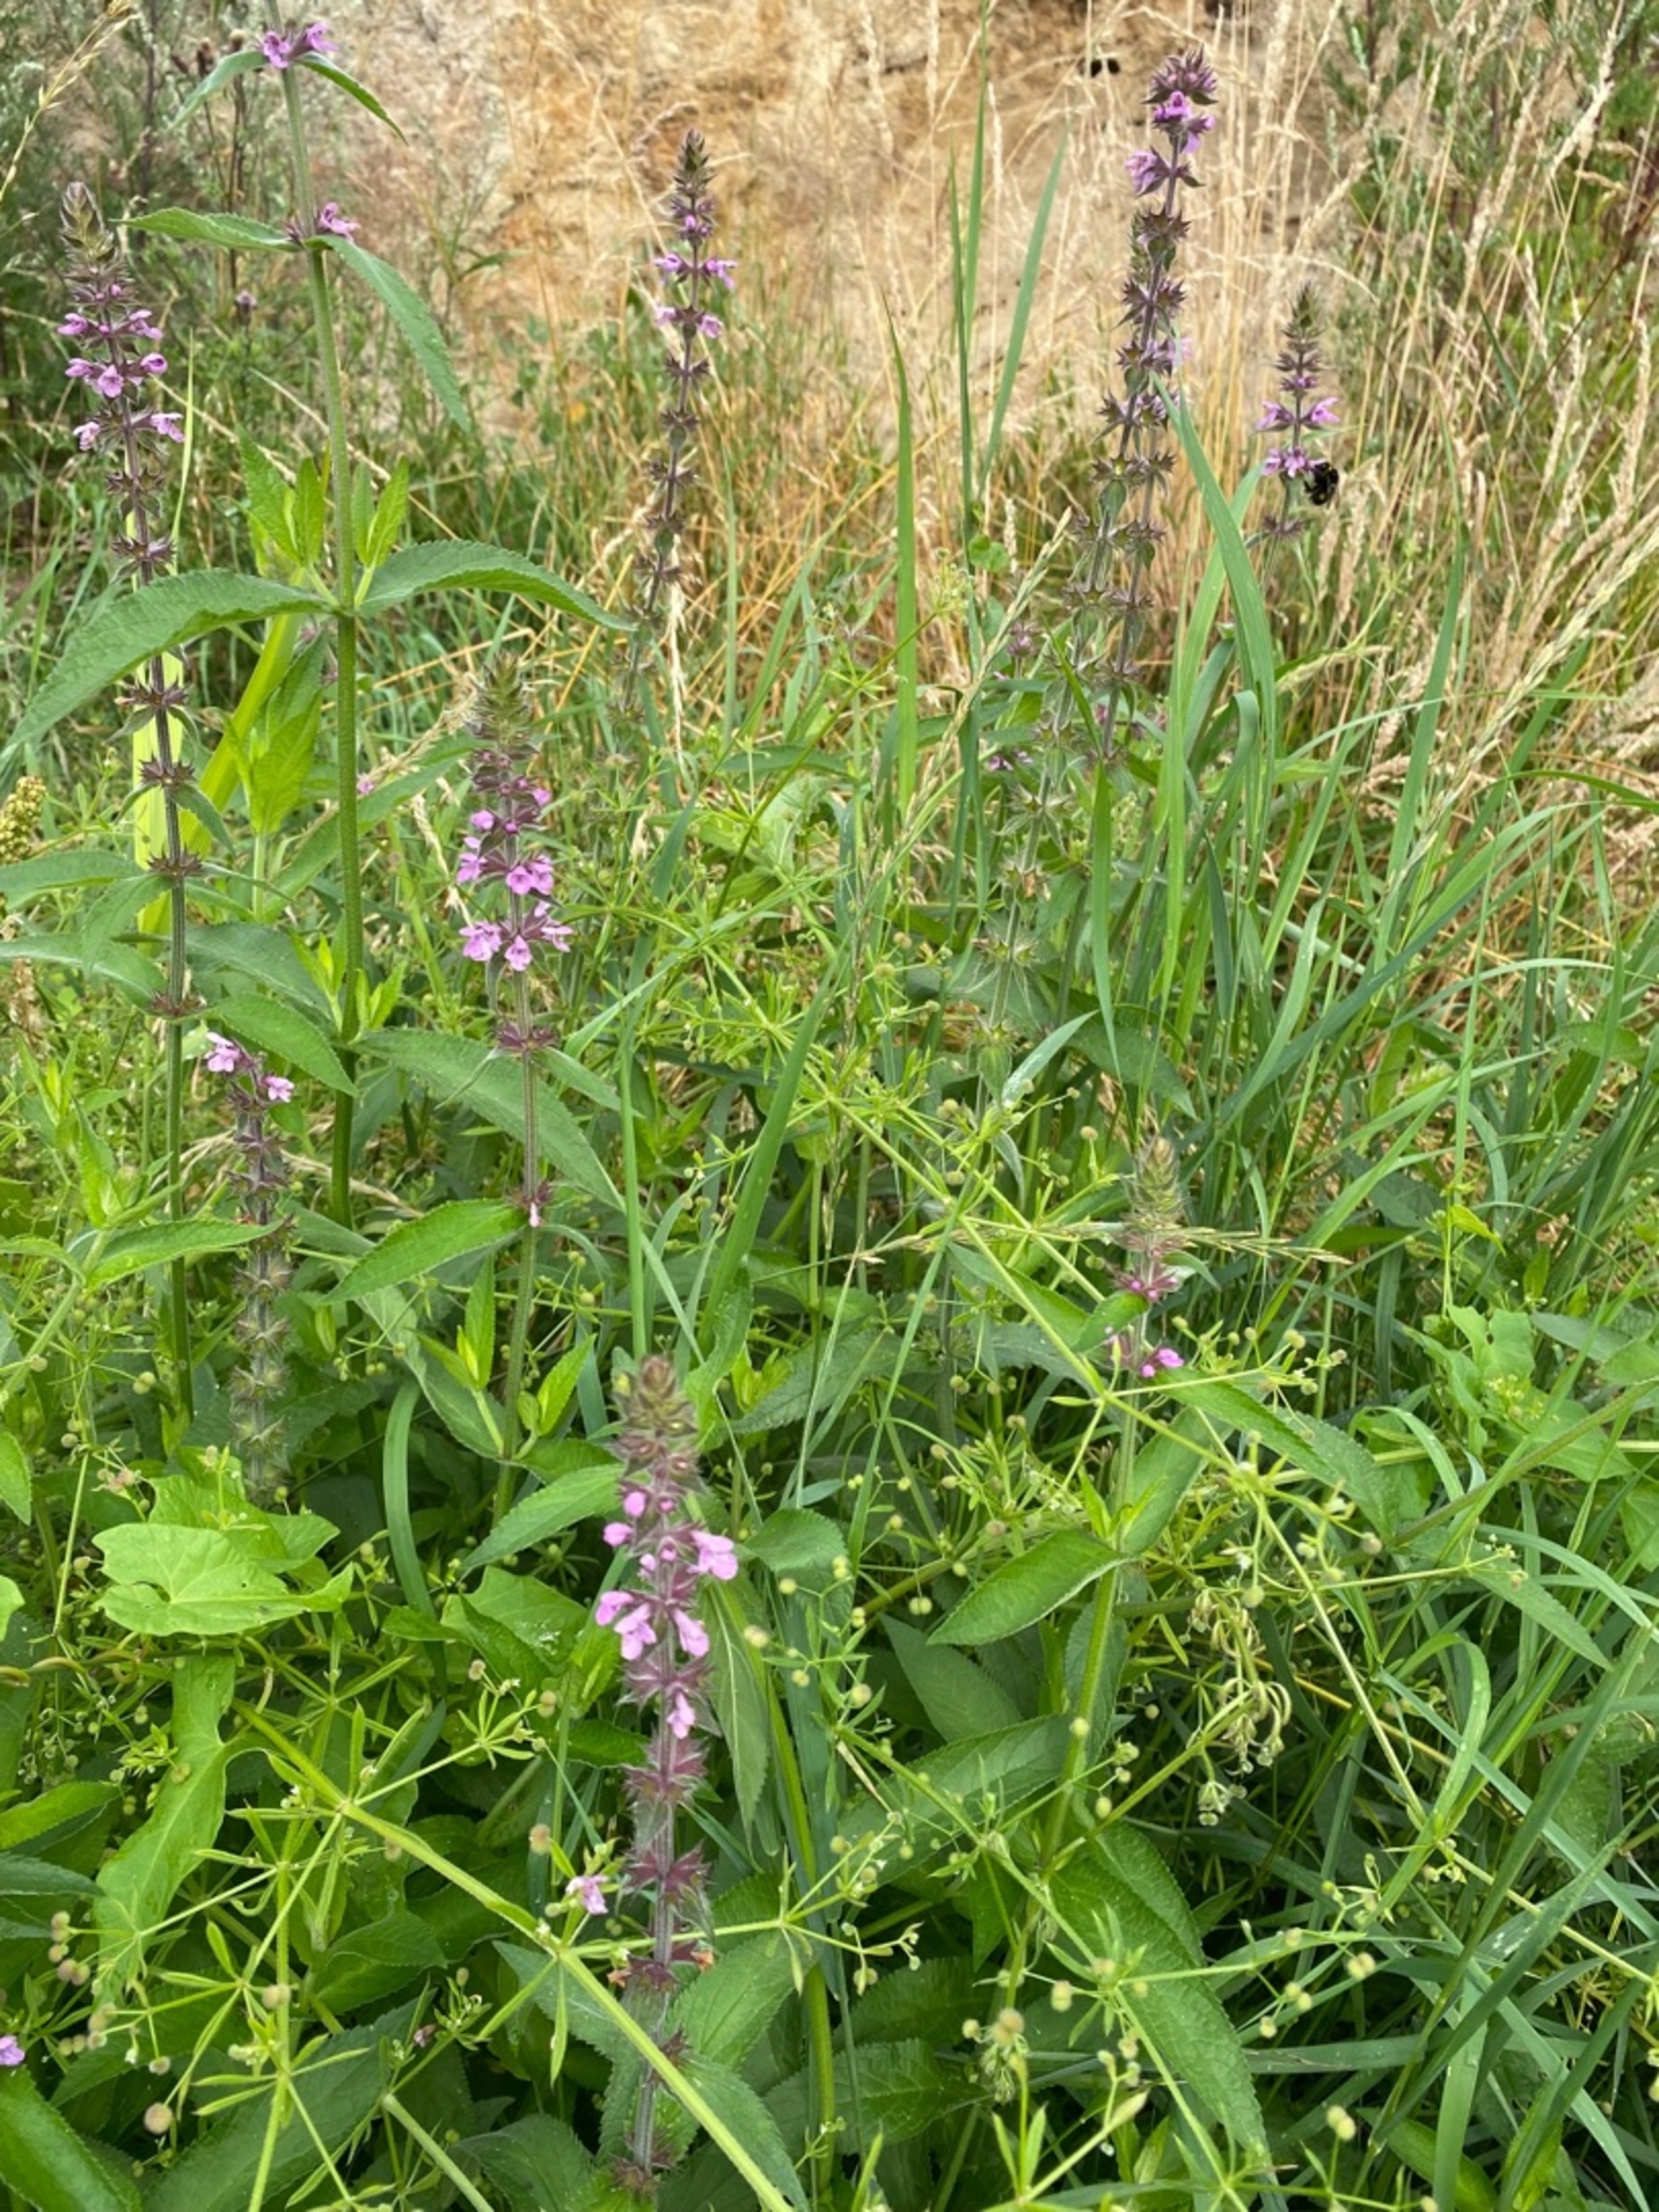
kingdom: Plantae
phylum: Tracheophyta
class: Magnoliopsida
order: Lamiales
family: Lamiaceae
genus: Stachys
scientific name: Stachys palustris
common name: Kær-galtetand
